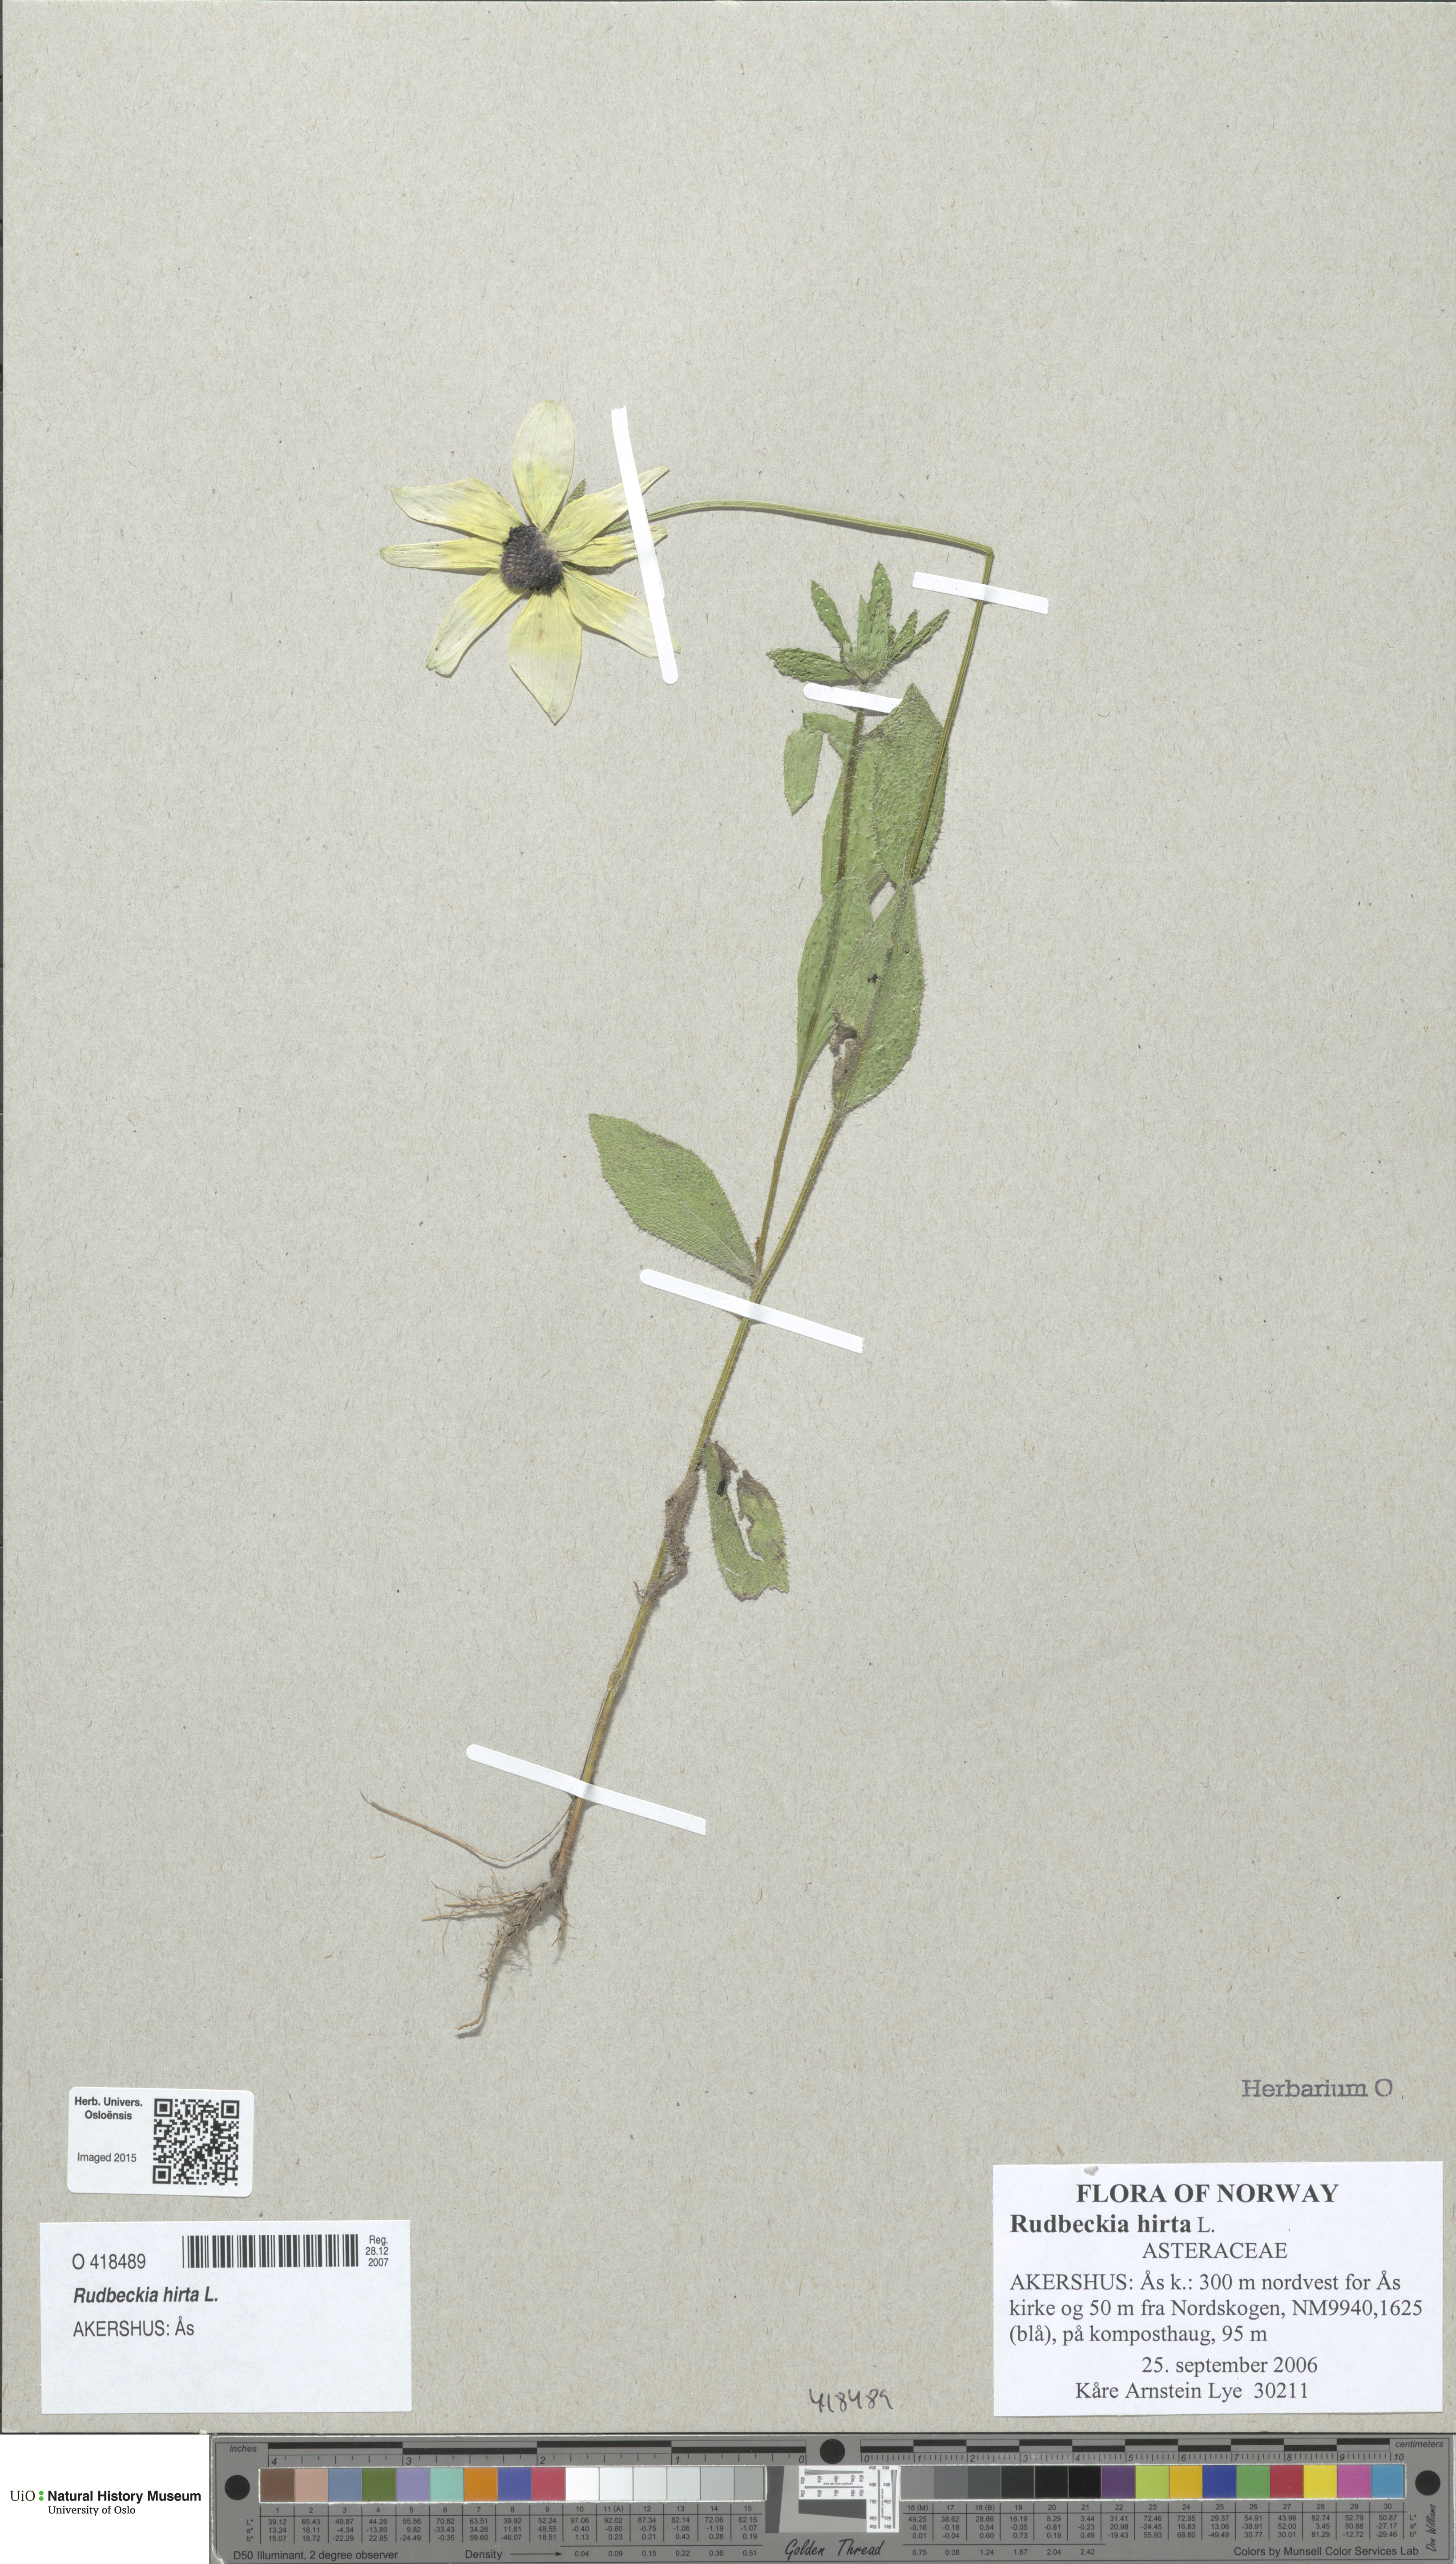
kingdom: Plantae
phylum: Tracheophyta
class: Magnoliopsida
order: Asterales
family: Asteraceae
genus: Rudbeckia
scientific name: Rudbeckia hirta
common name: Black-eyed-susan
